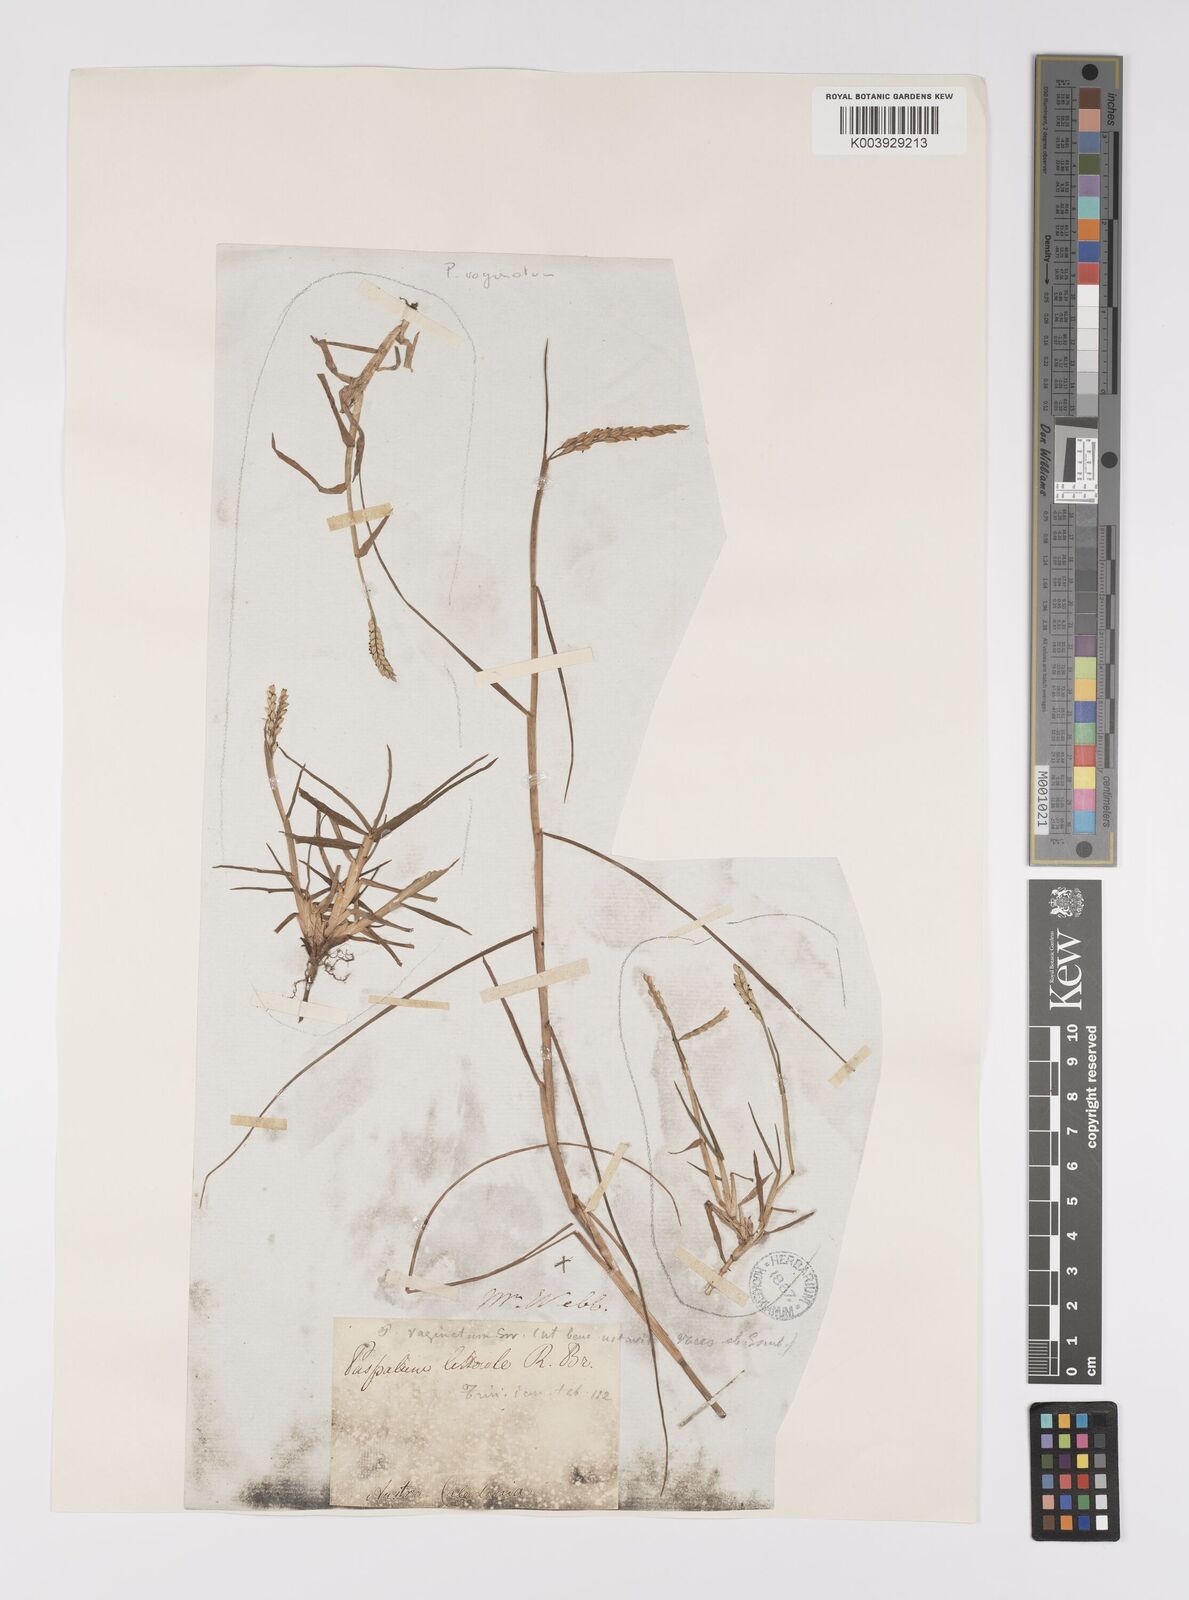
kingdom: Plantae
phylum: Tracheophyta
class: Liliopsida
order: Poales
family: Poaceae
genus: Paspalum
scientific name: Paspalum vaginatum
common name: Seashore paspalum
